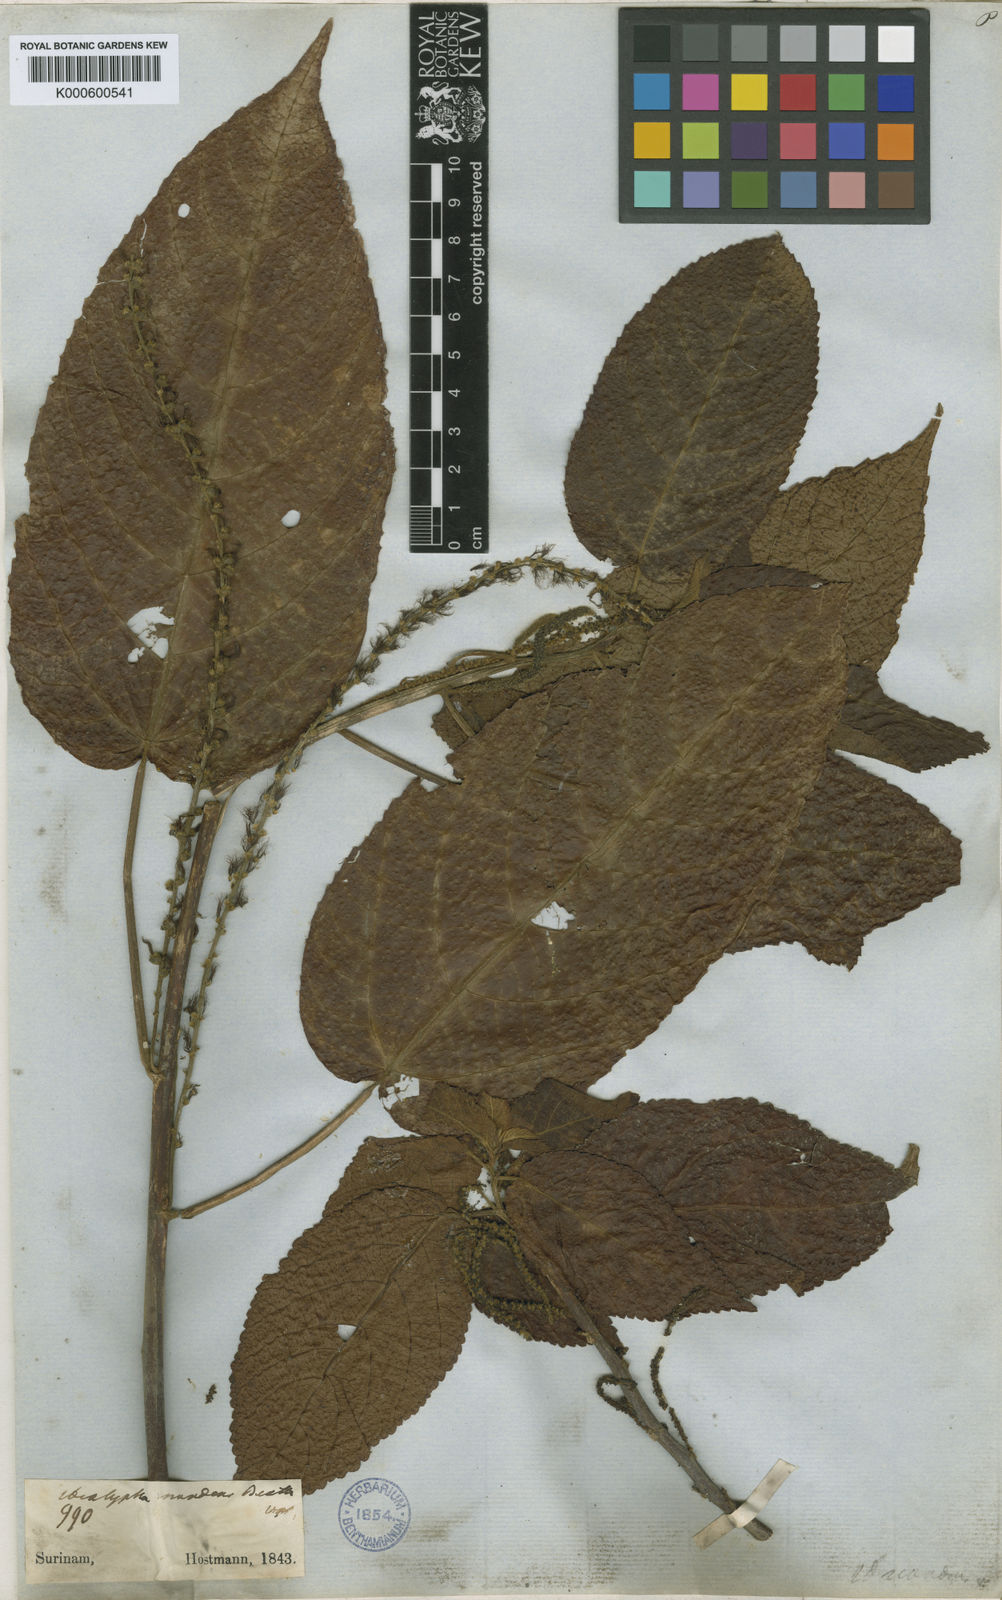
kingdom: Plantae
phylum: Tracheophyta
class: Magnoliopsida
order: Malpighiales
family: Euphorbiaceae
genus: Acalypha
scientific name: Acalypha scandens
